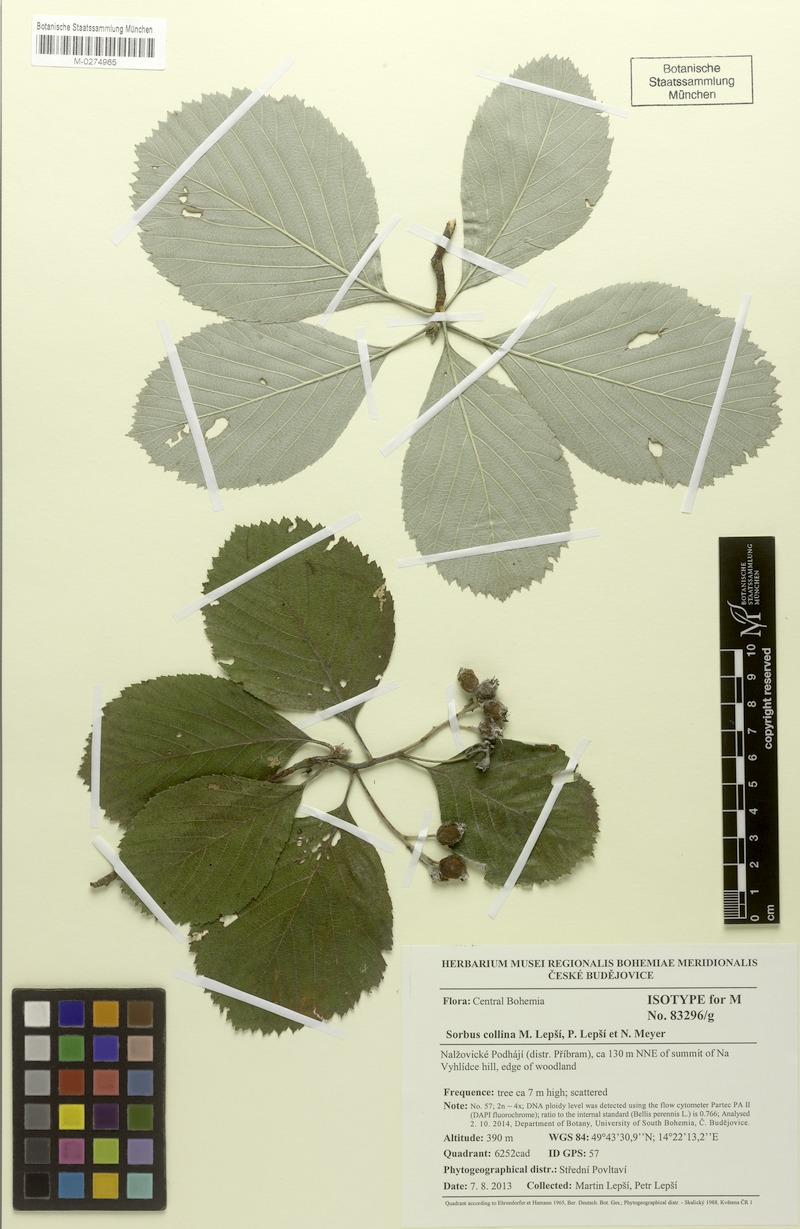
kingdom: Plantae
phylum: Tracheophyta
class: Magnoliopsida
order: Rosales
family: Rosaceae
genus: Aria
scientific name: Aria collina
